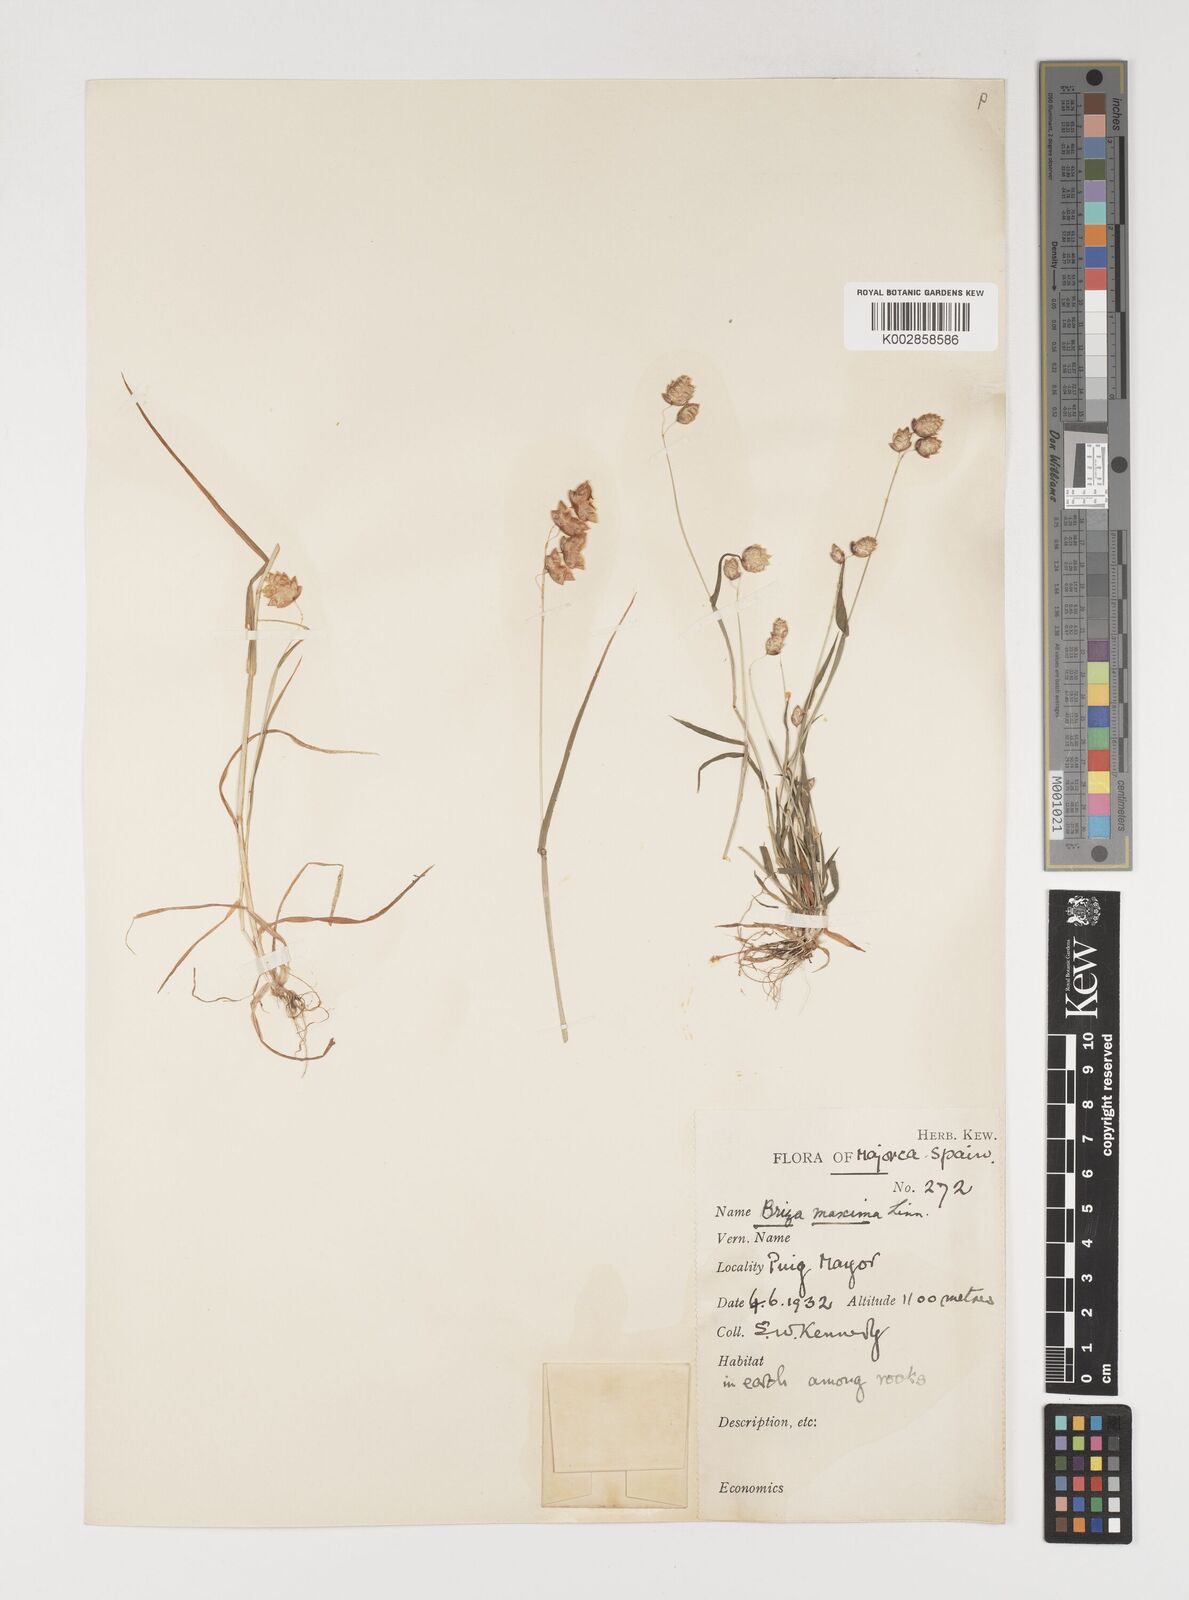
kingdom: Plantae
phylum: Tracheophyta
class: Liliopsida
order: Poales
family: Poaceae
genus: Briza
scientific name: Briza maxima
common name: Big quakinggrass
